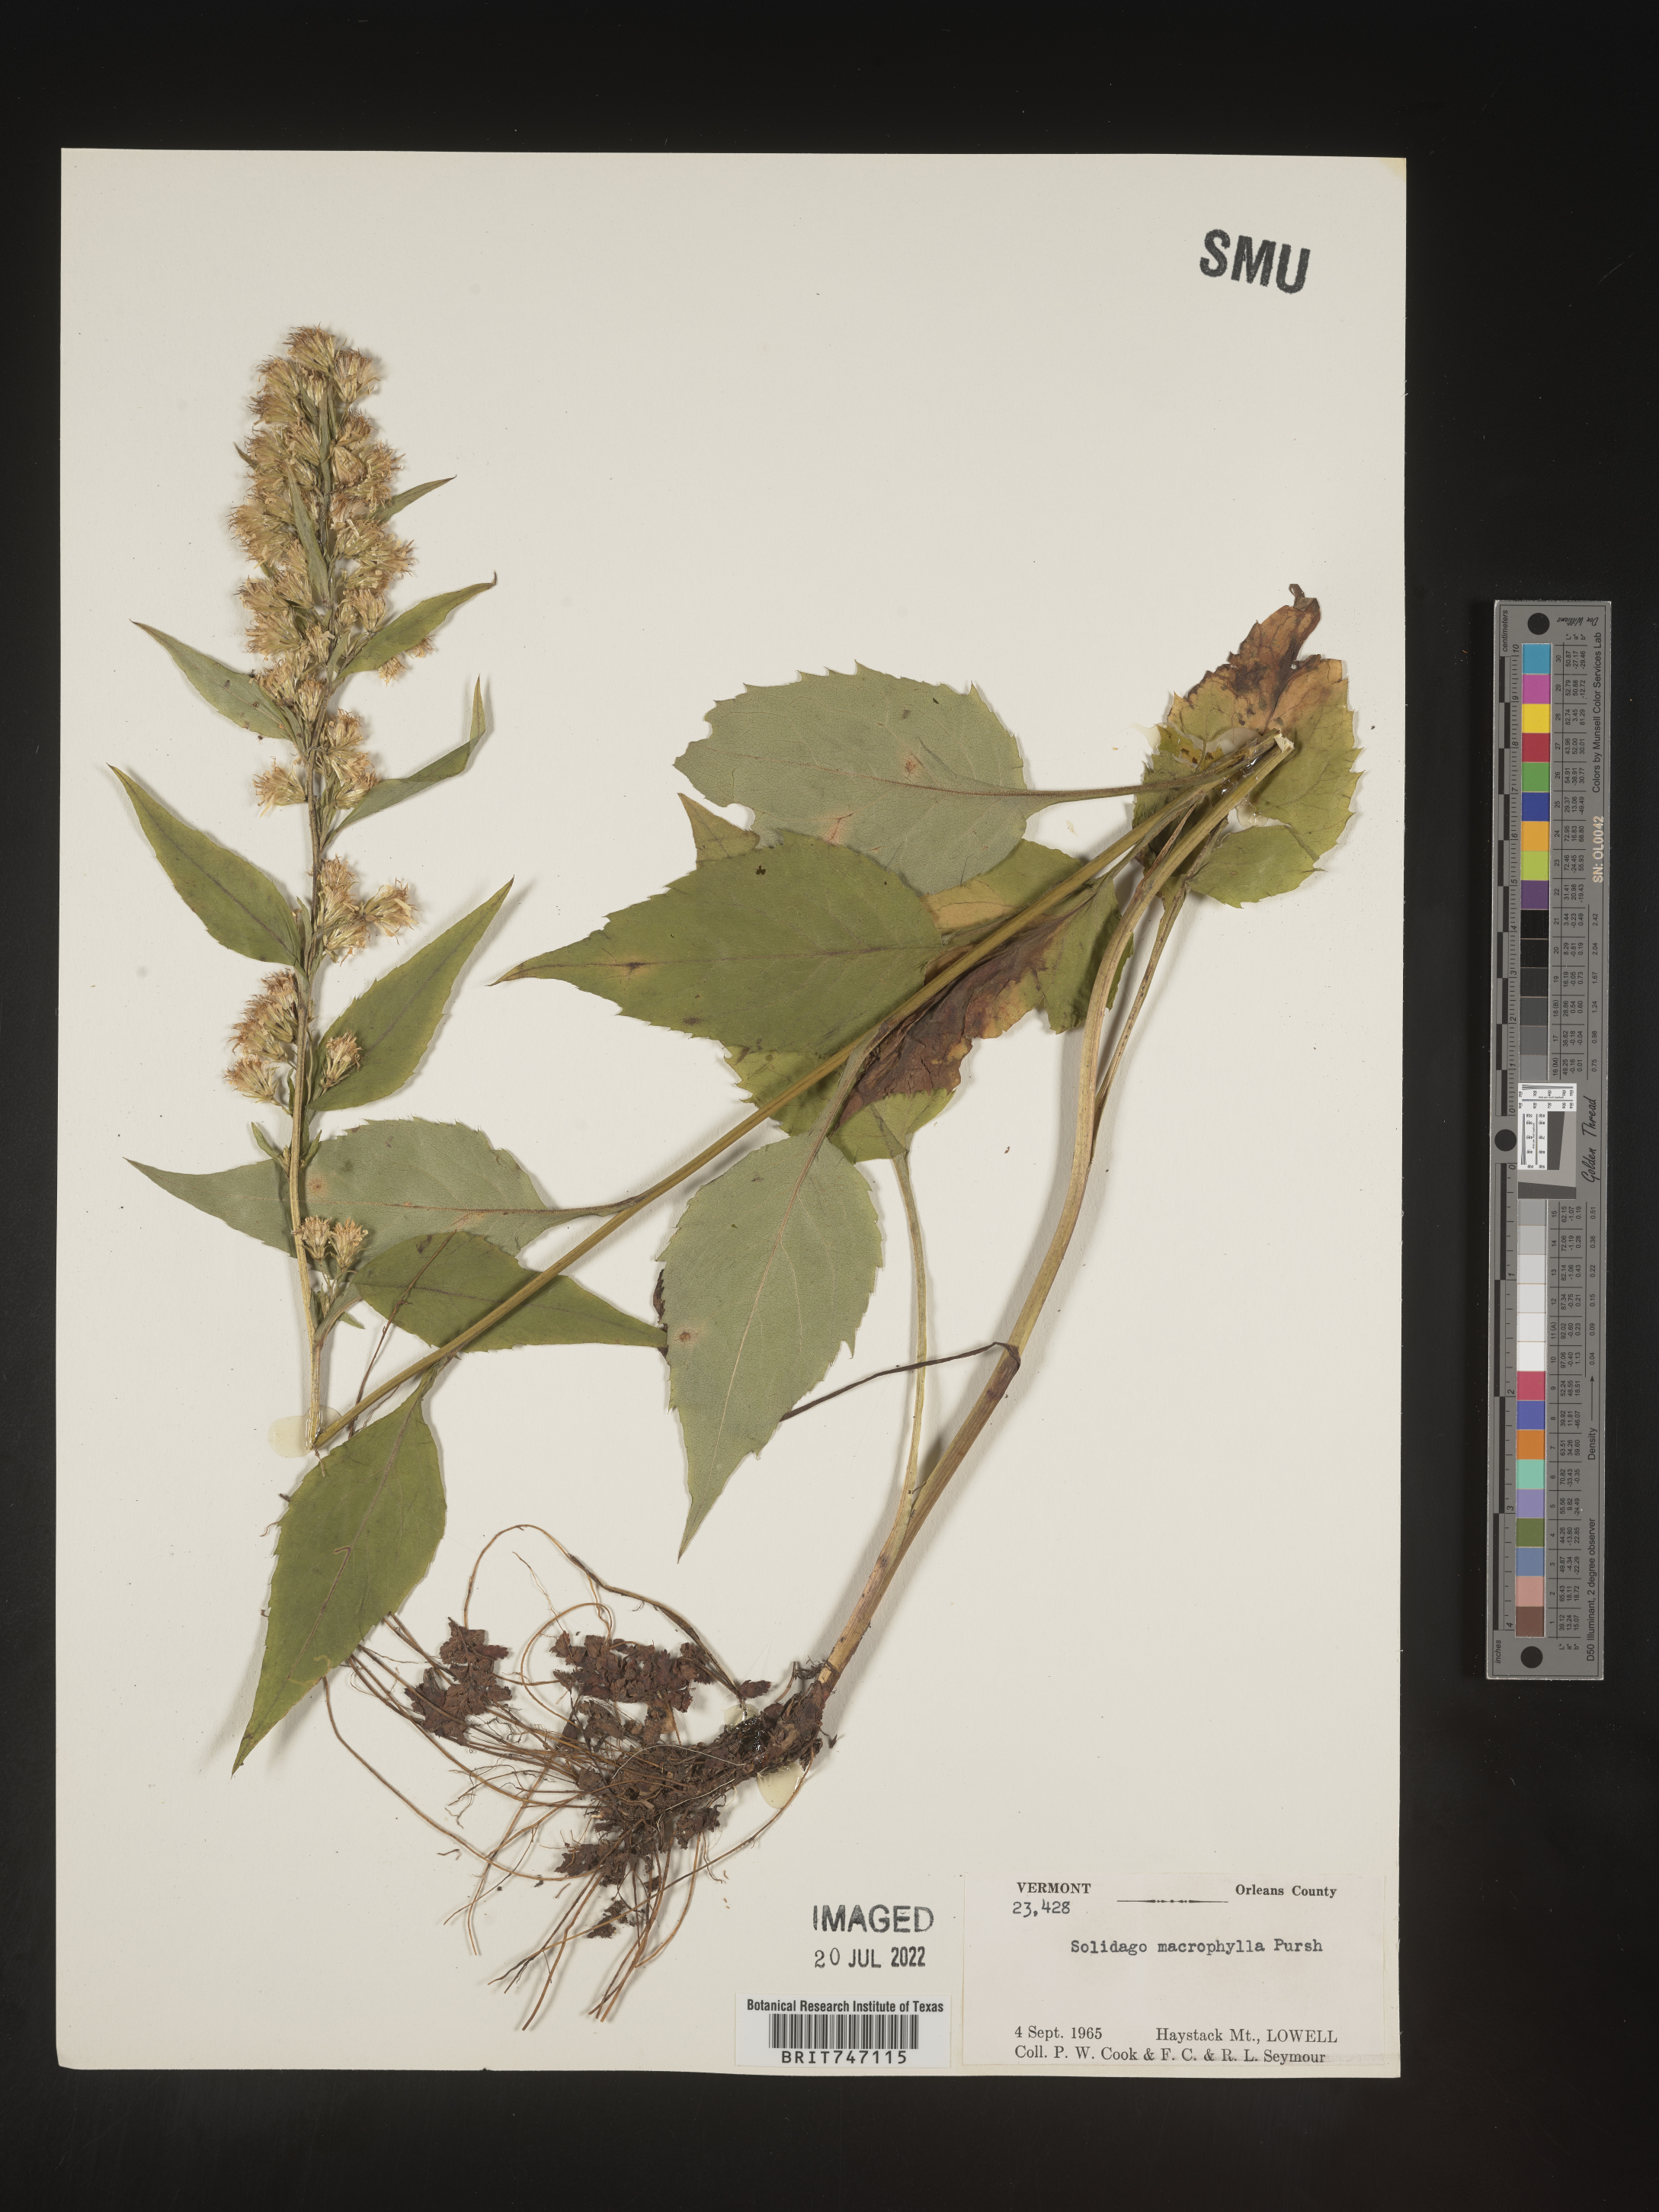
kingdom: Plantae
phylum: Tracheophyta
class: Magnoliopsida
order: Asterales
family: Asteraceae
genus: Solidago
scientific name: Solidago macrophylla
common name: Large-leaved goldenrod
